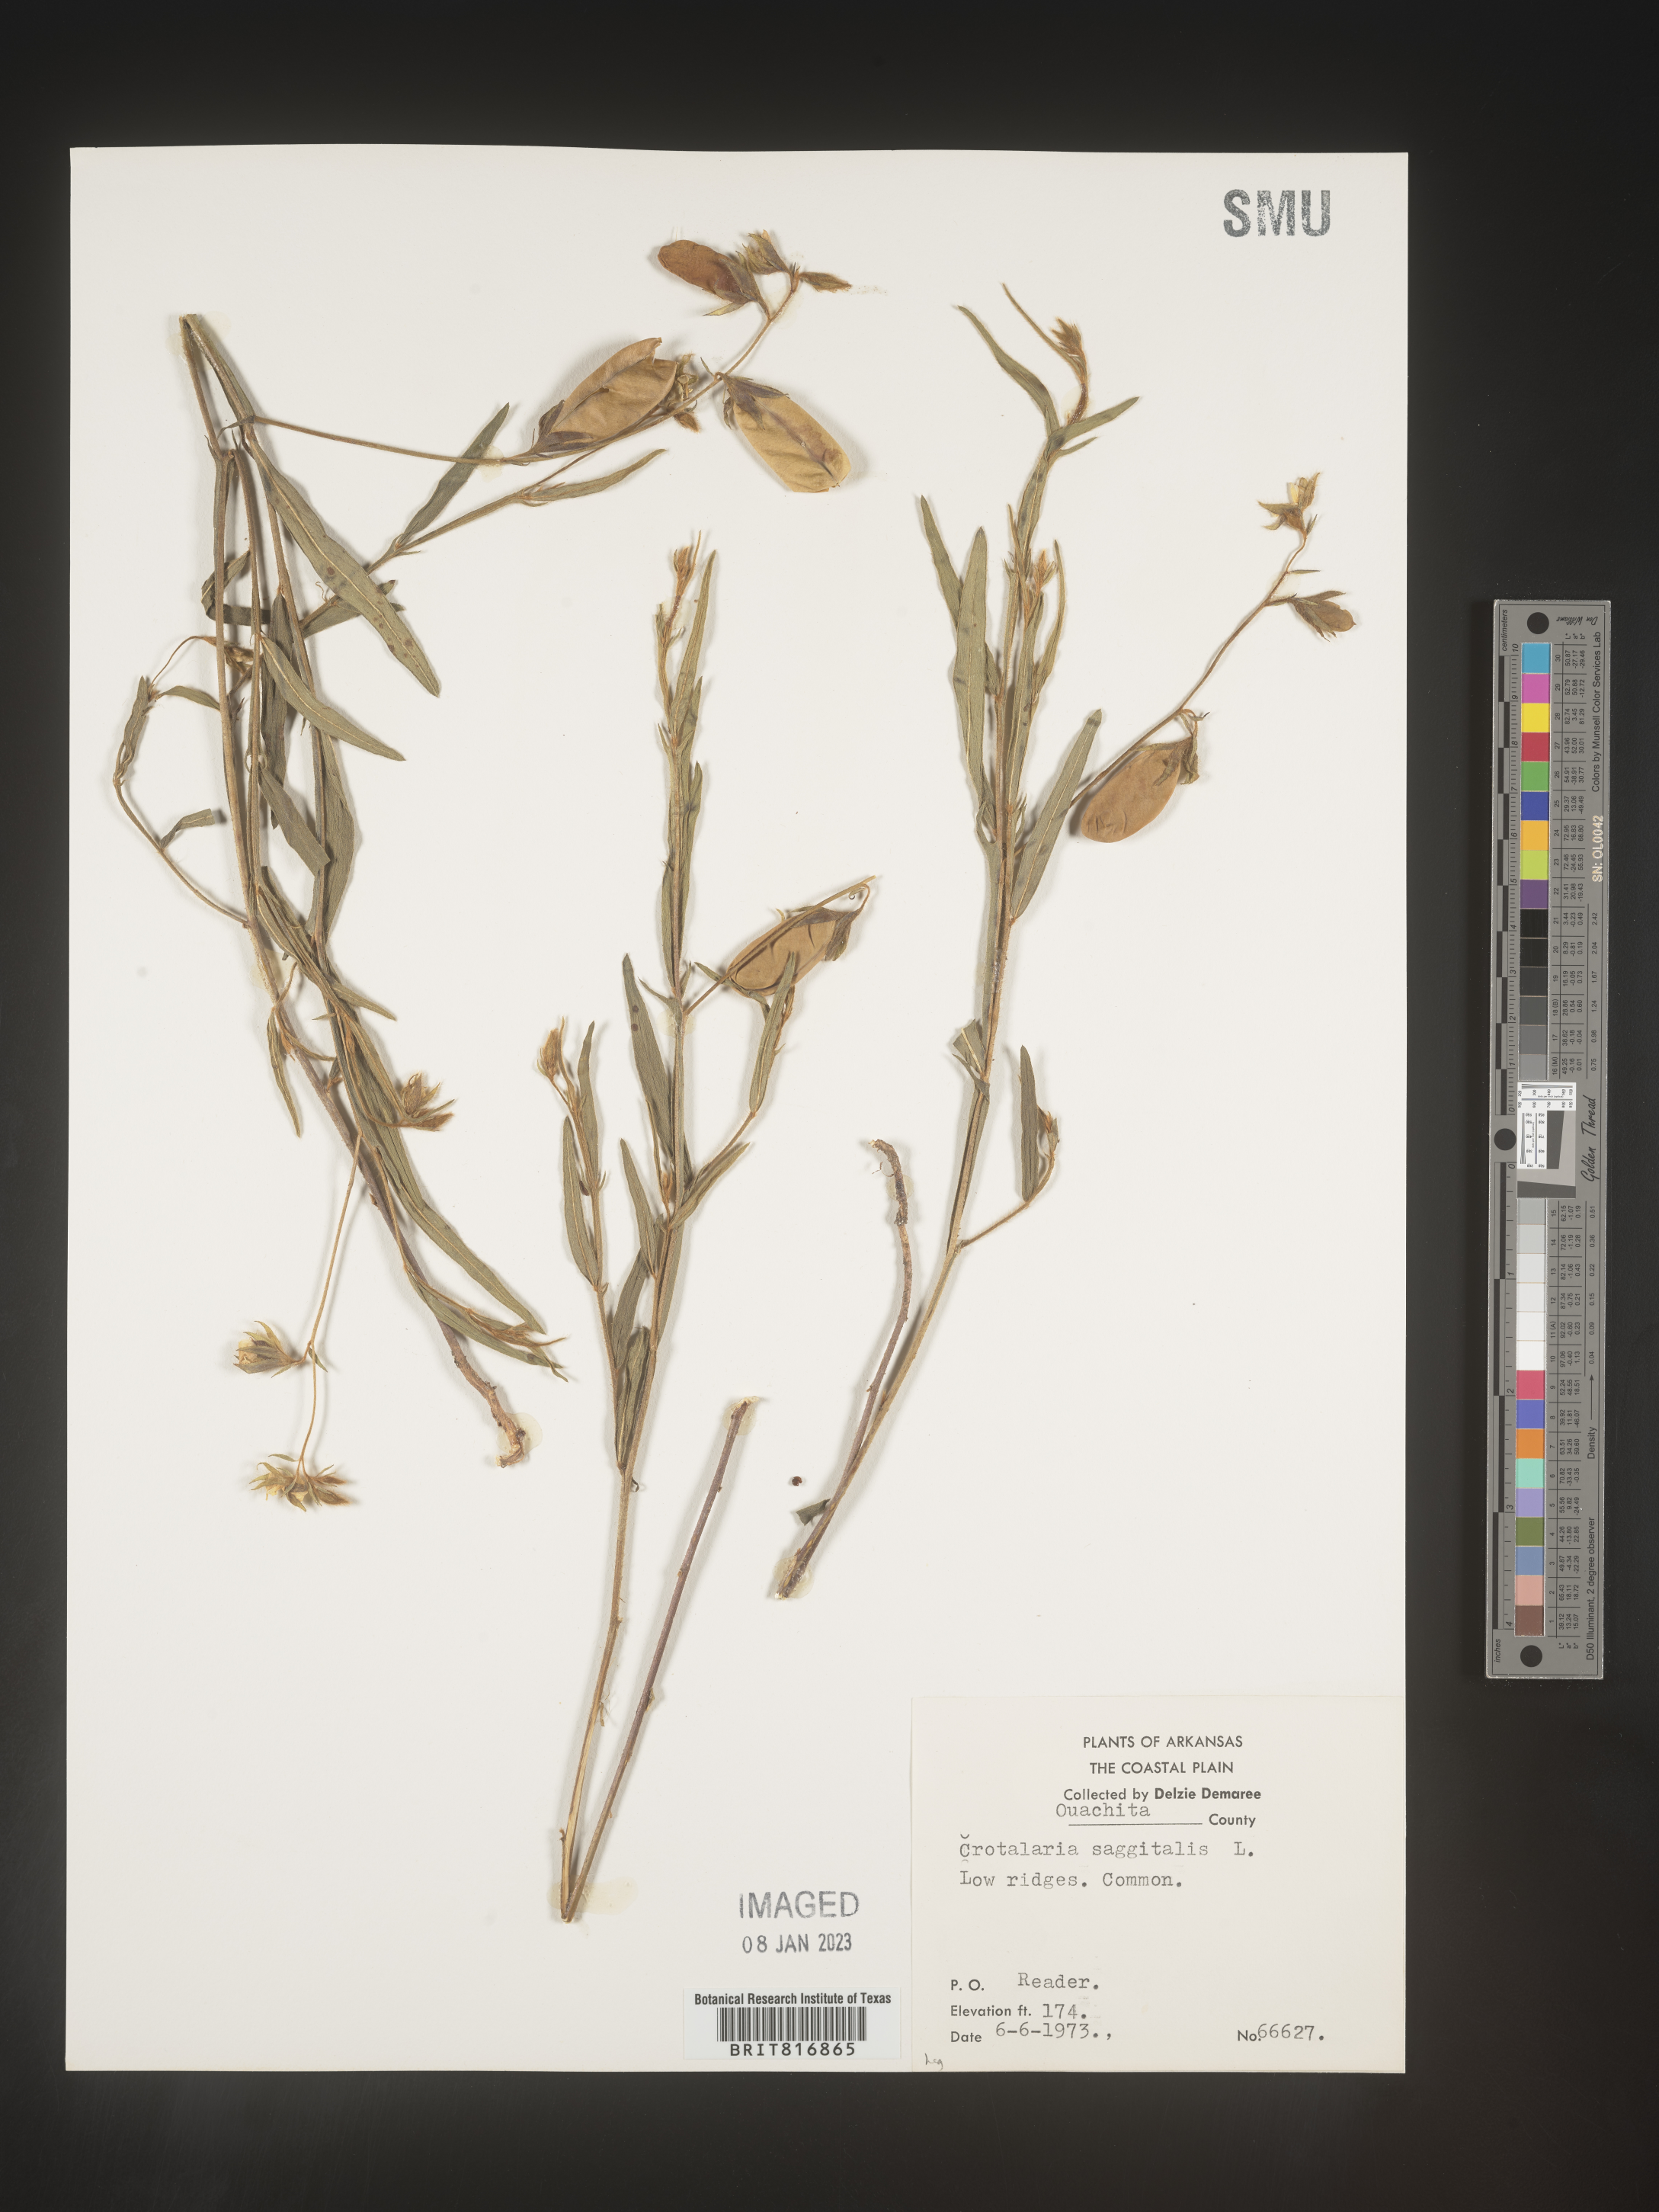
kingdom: Plantae
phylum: Tracheophyta
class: Magnoliopsida
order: Fabales
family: Fabaceae
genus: Crotalaria
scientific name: Crotalaria sagittalis
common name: Arrowhead rattlebox
